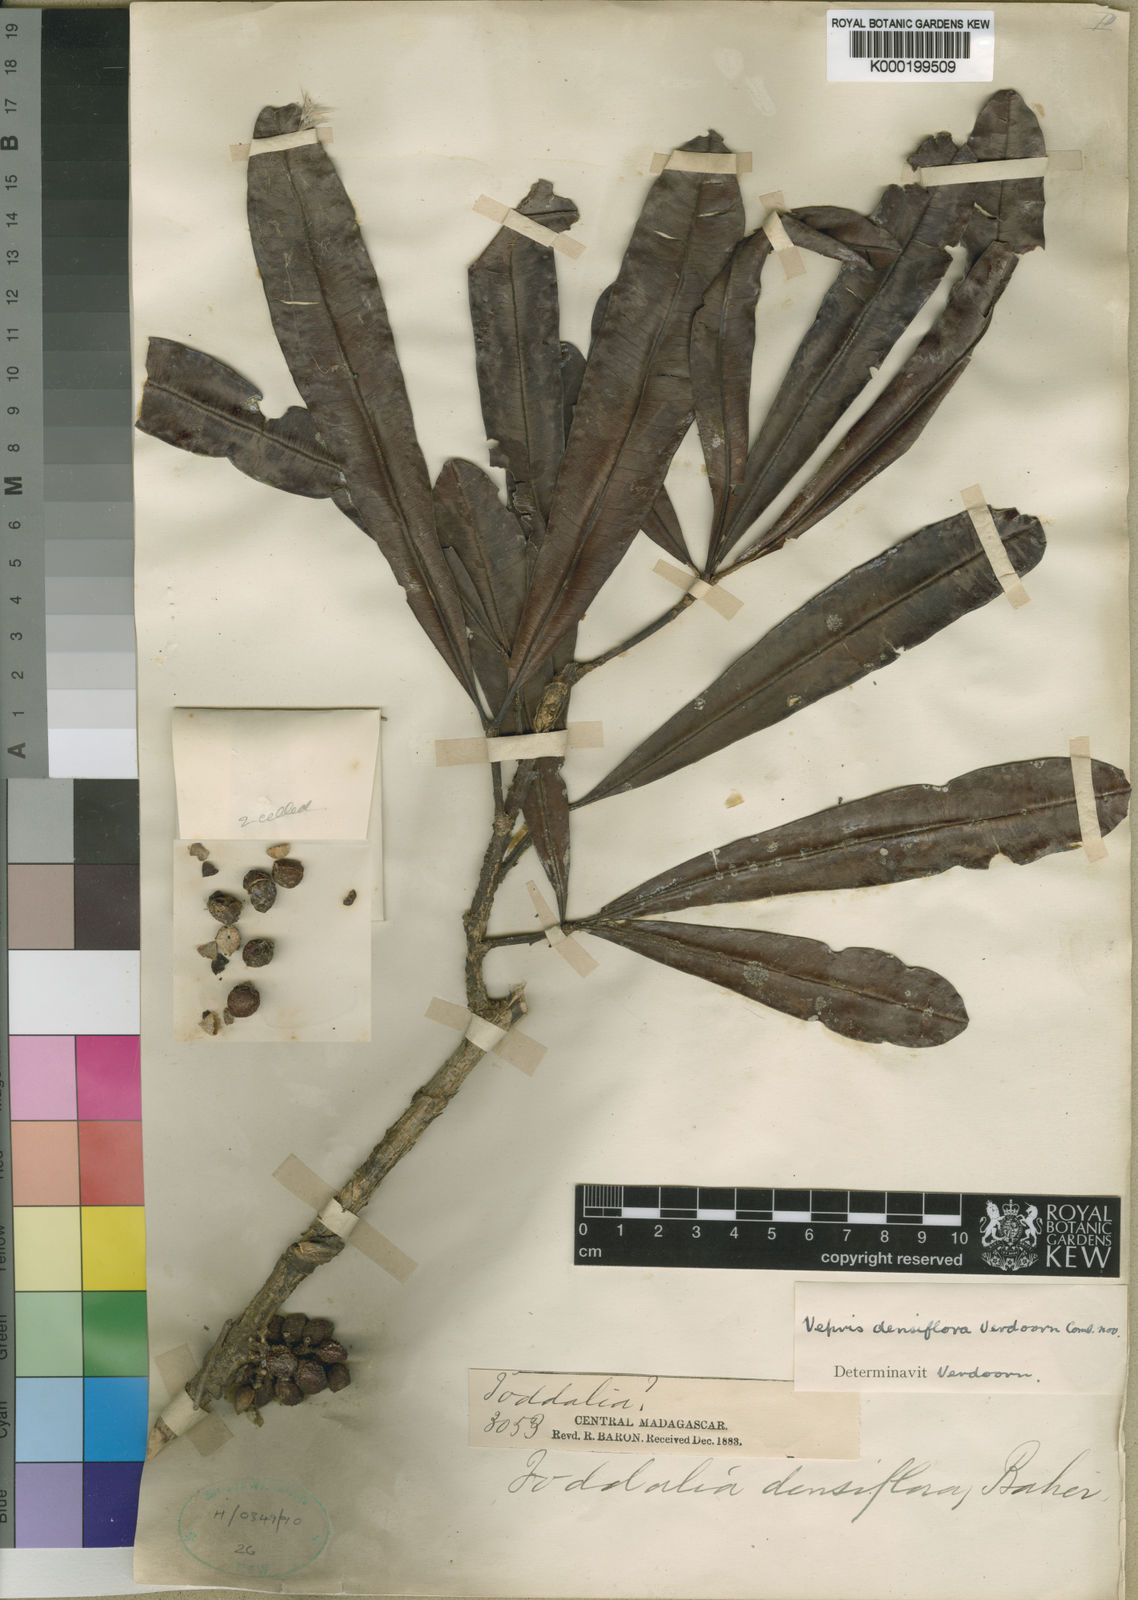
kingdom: Plantae
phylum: Tracheophyta
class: Magnoliopsida
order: Sapindales
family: Rutaceae
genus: Vepris
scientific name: Vepris densiflora
